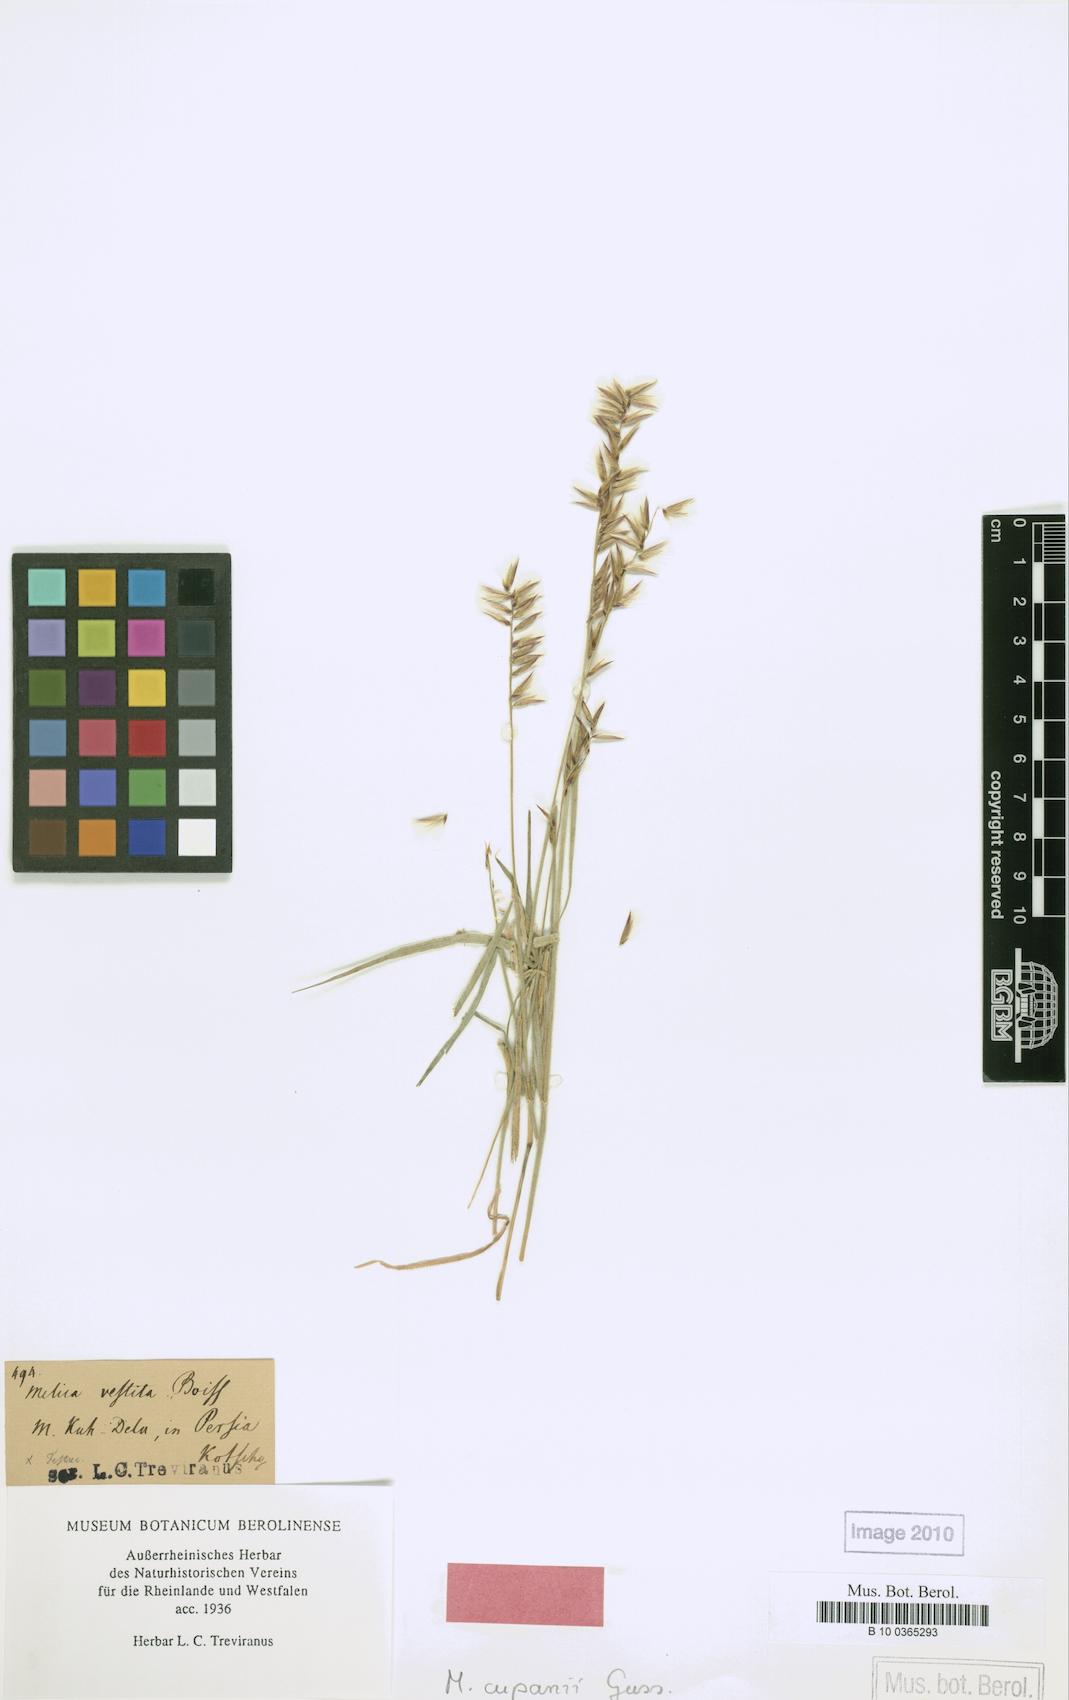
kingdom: Plantae
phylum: Tracheophyta
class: Liliopsida
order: Poales
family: Poaceae
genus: Melica
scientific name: Melica persica
